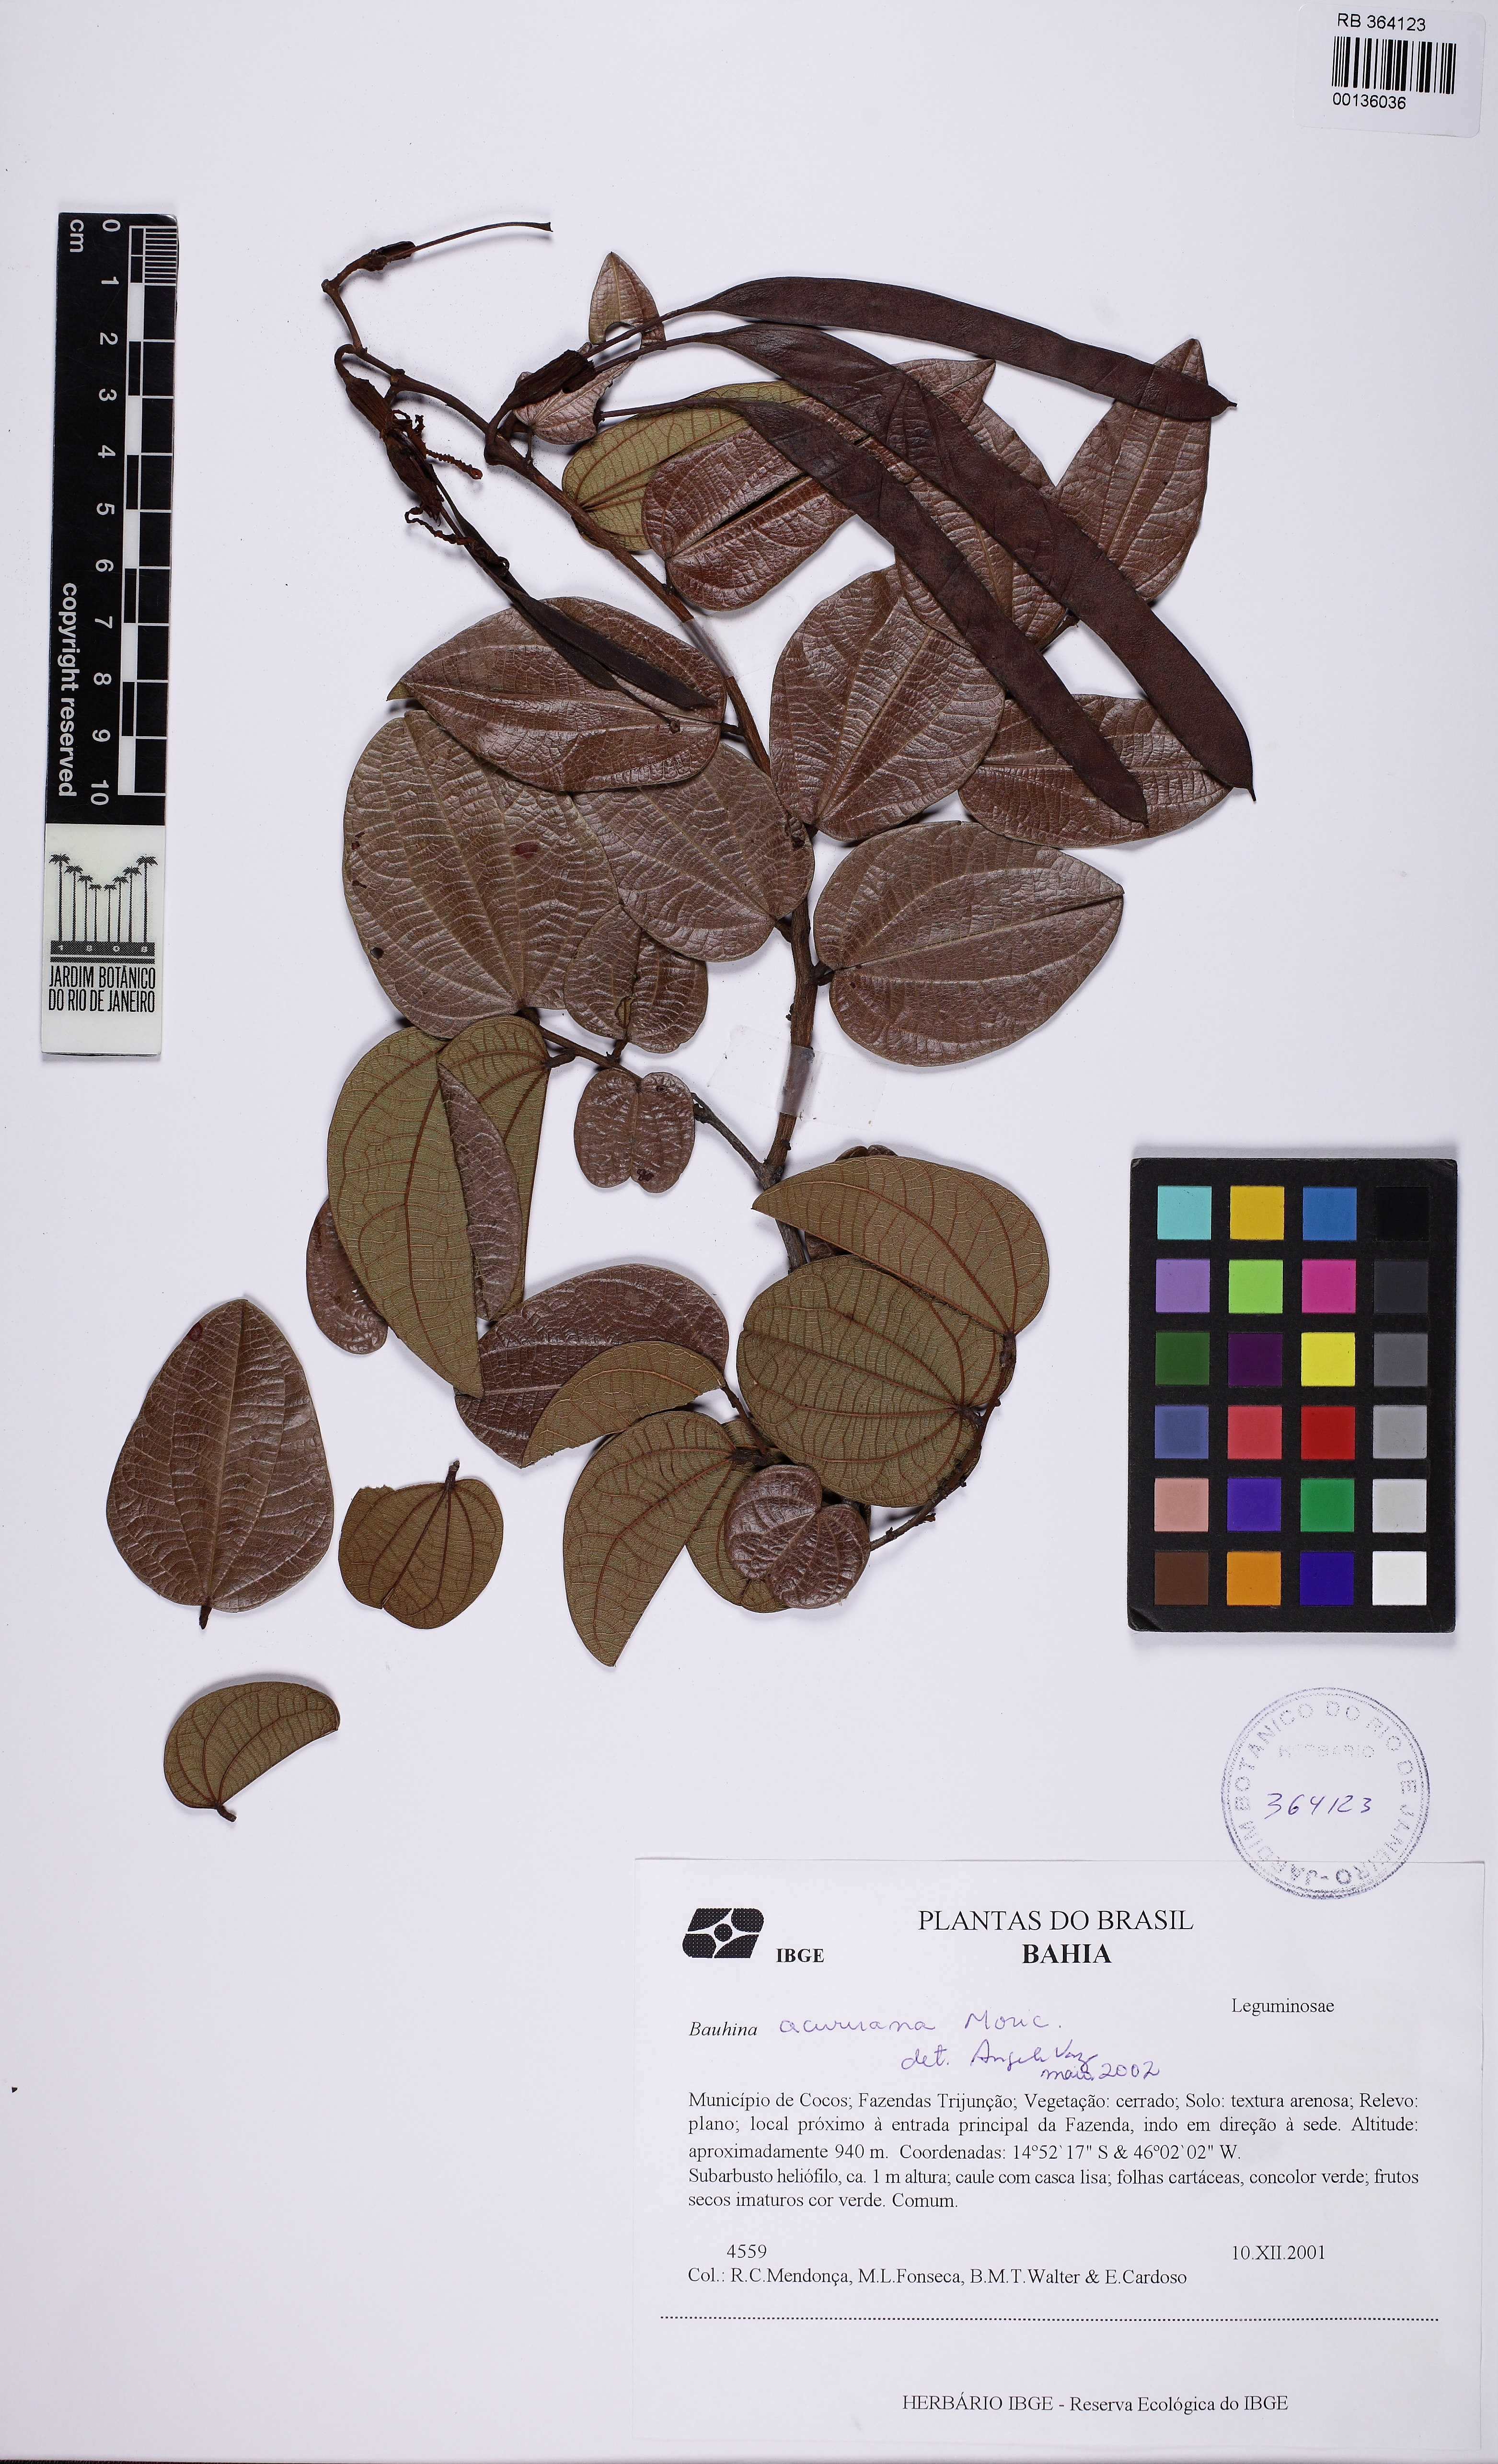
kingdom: Plantae
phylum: Tracheophyta
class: Magnoliopsida
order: Fabales
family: Fabaceae
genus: Bauhinia
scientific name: Bauhinia acuruana
